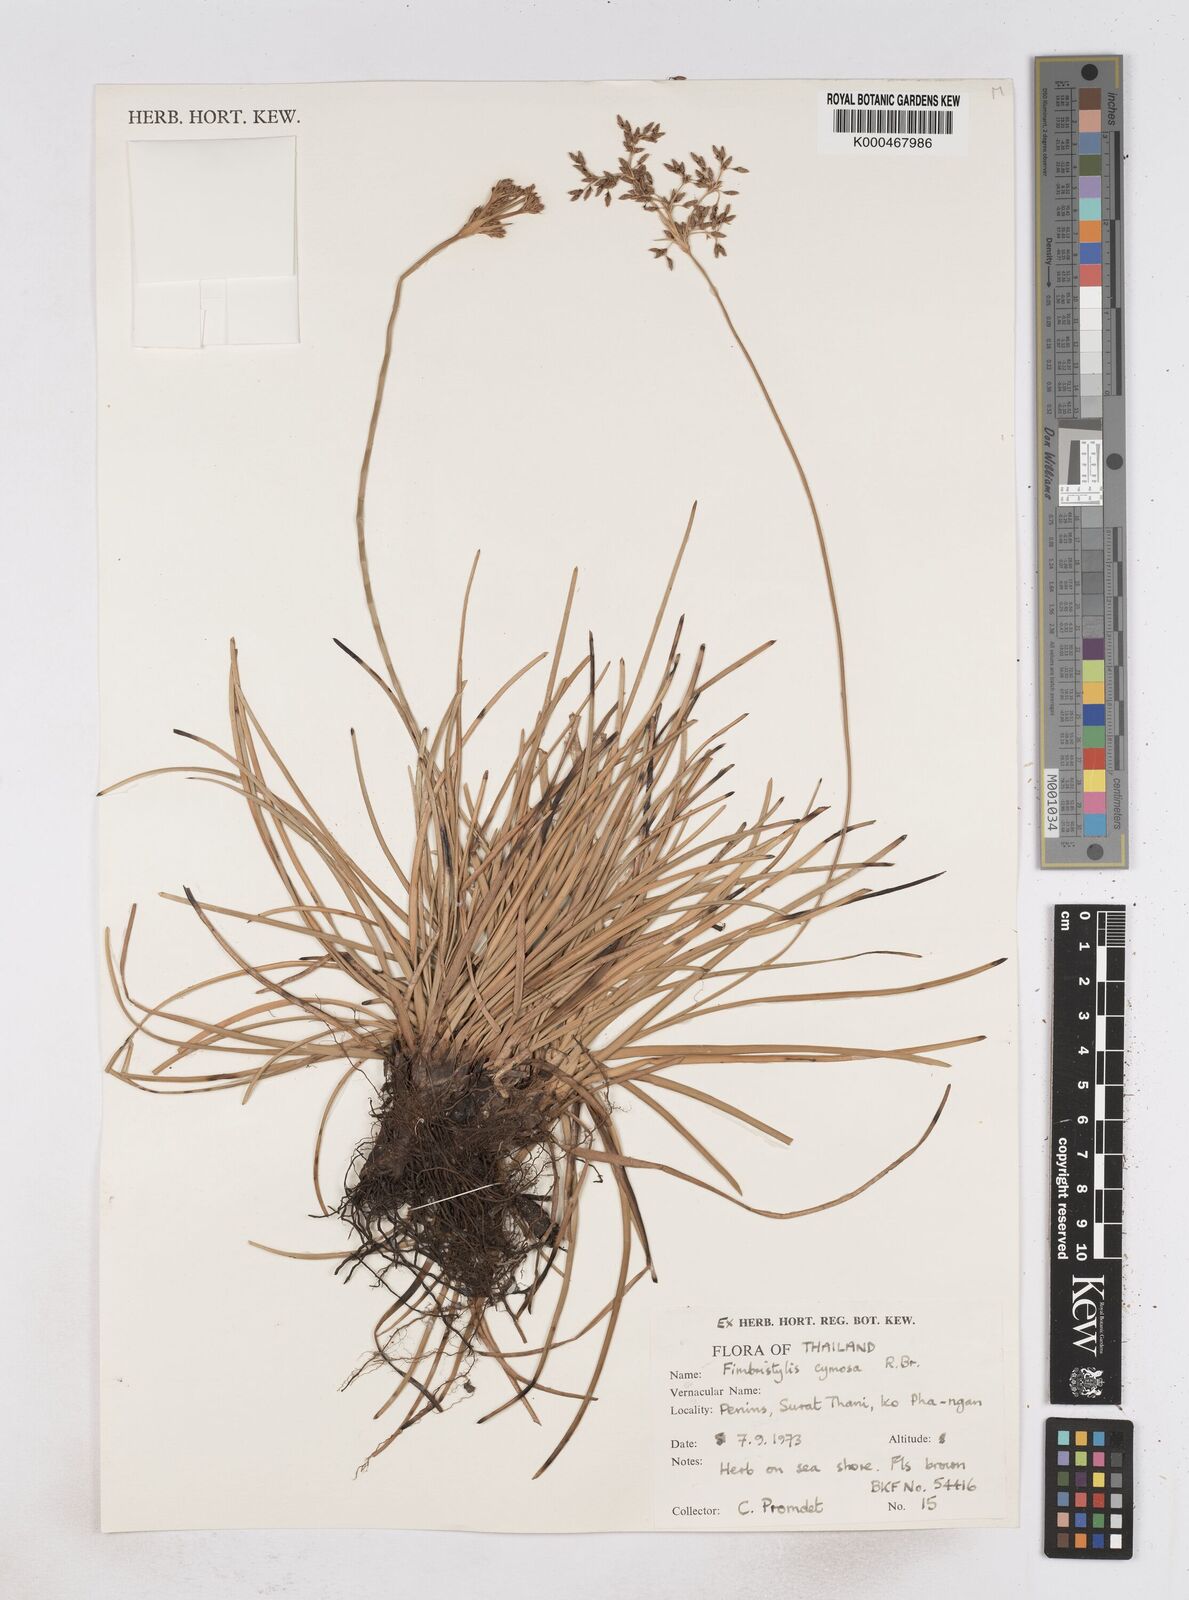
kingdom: Plantae
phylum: Tracheophyta
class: Liliopsida
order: Poales
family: Cyperaceae
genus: Fimbristylis
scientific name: Fimbristylis cymosa
